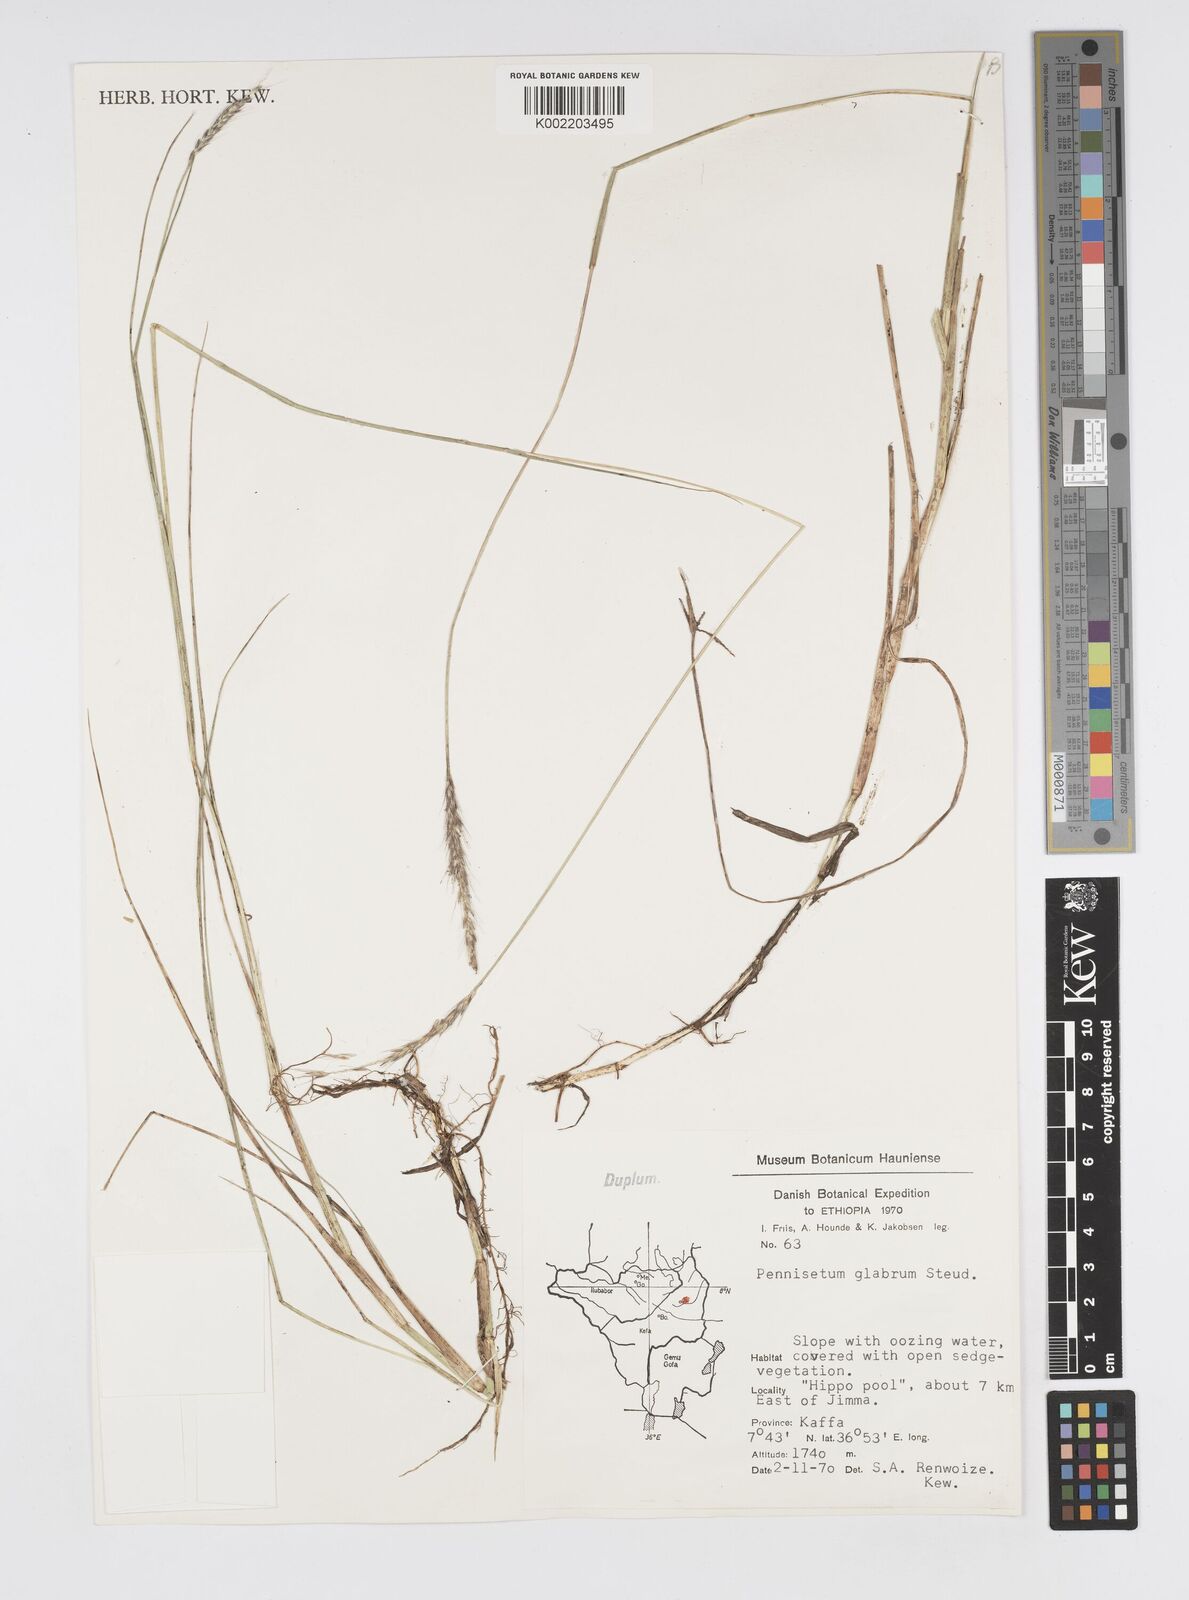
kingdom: Plantae
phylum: Tracheophyta
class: Liliopsida
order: Poales
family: Poaceae
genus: Cenchrus
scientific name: Cenchrus geniculatus
